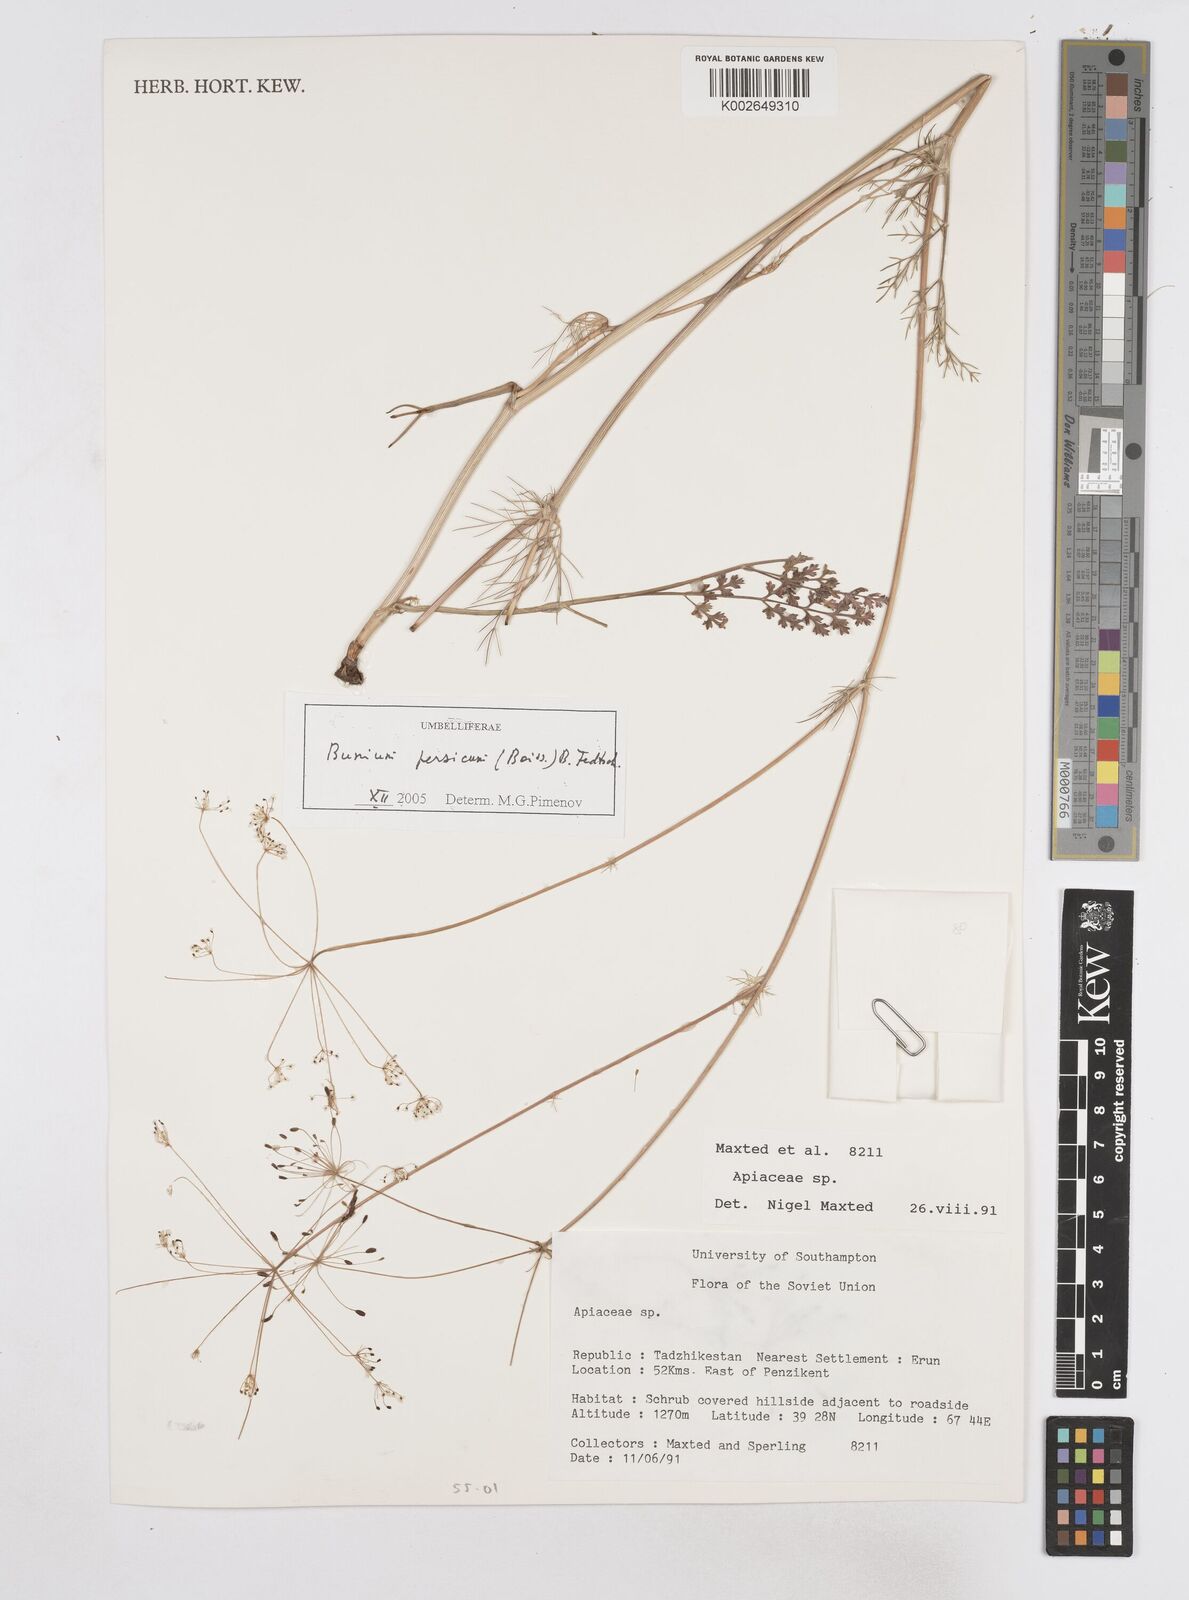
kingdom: Plantae
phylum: Tracheophyta
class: Magnoliopsida
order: Apiales
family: Apiaceae
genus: Elwendia
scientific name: Elwendia persica
